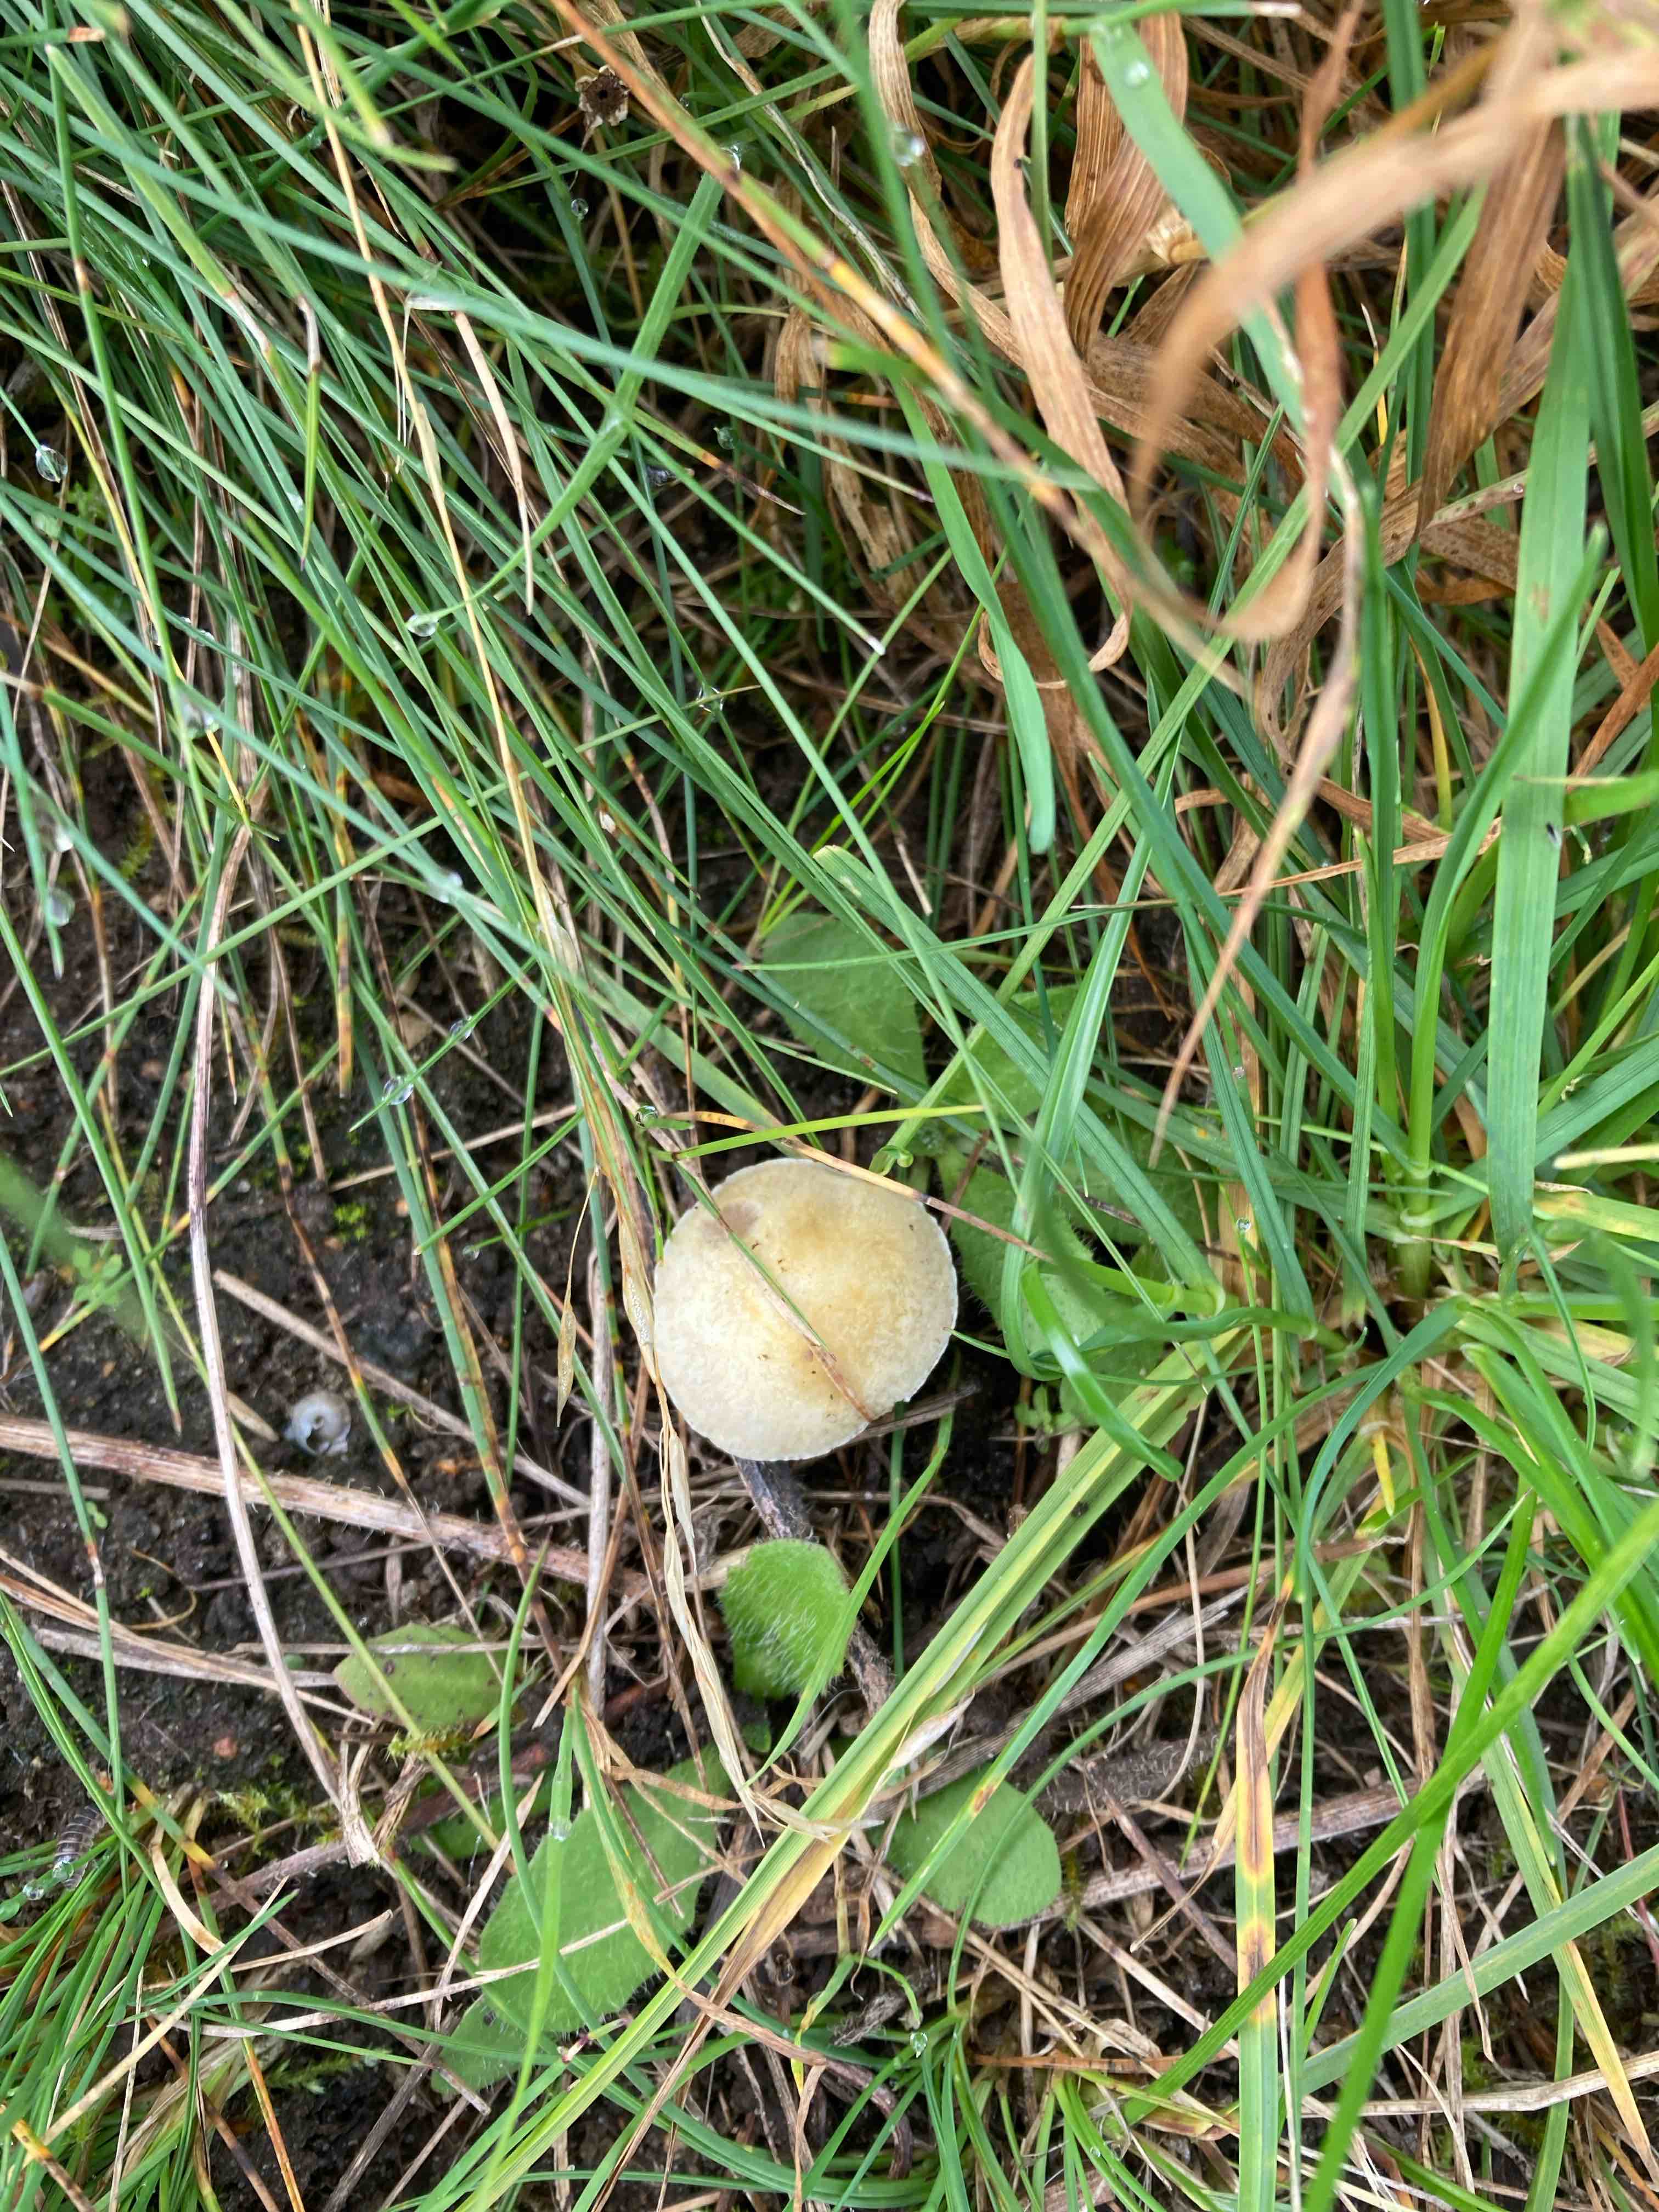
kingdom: Fungi
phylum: Basidiomycota
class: Agaricomycetes
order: Agaricales
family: Hymenogastraceae
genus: Psilocybe
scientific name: Psilocybe coronilla
